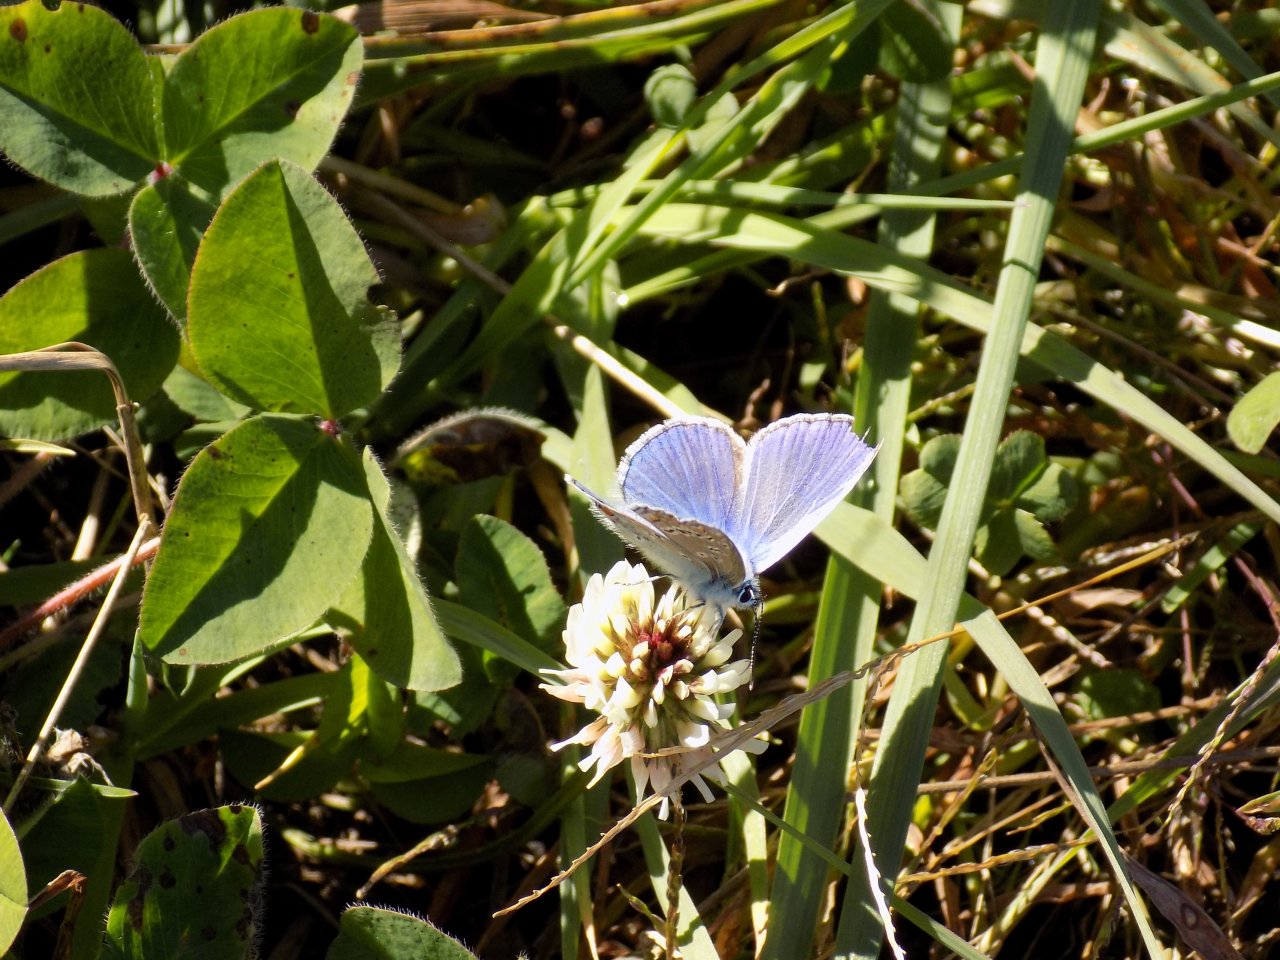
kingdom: Animalia
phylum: Arthropoda
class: Insecta
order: Lepidoptera
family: Lycaenidae
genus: Polyommatus
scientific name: Polyommatus icarus
